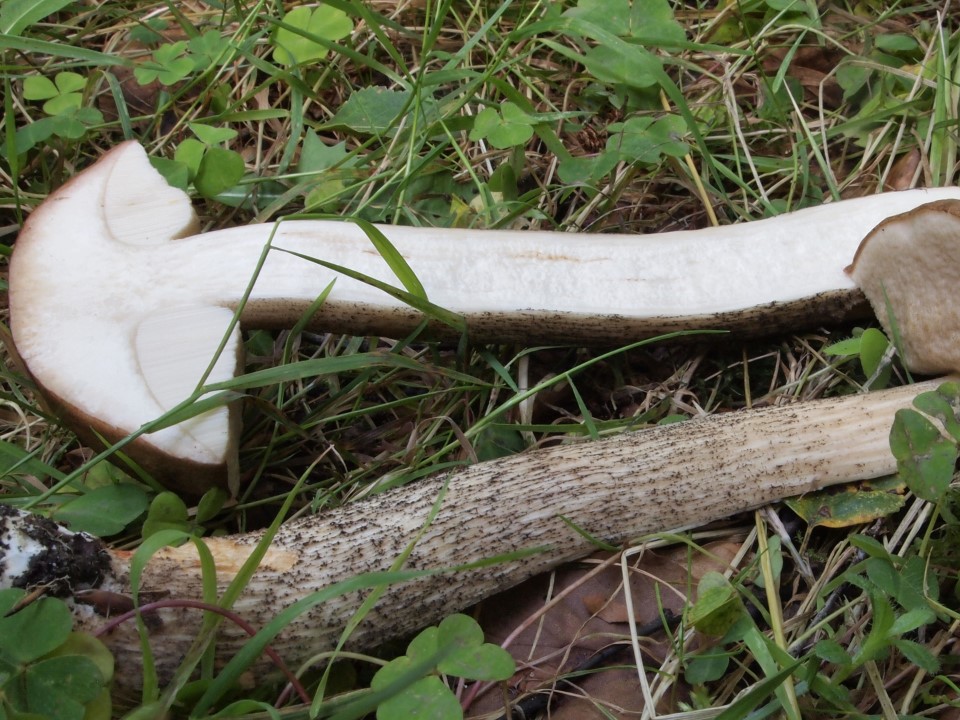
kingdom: Fungi
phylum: Basidiomycota
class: Agaricomycetes
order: Boletales
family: Boletaceae
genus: Leccinum
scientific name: Leccinum scabrum
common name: brun skælrørhat
